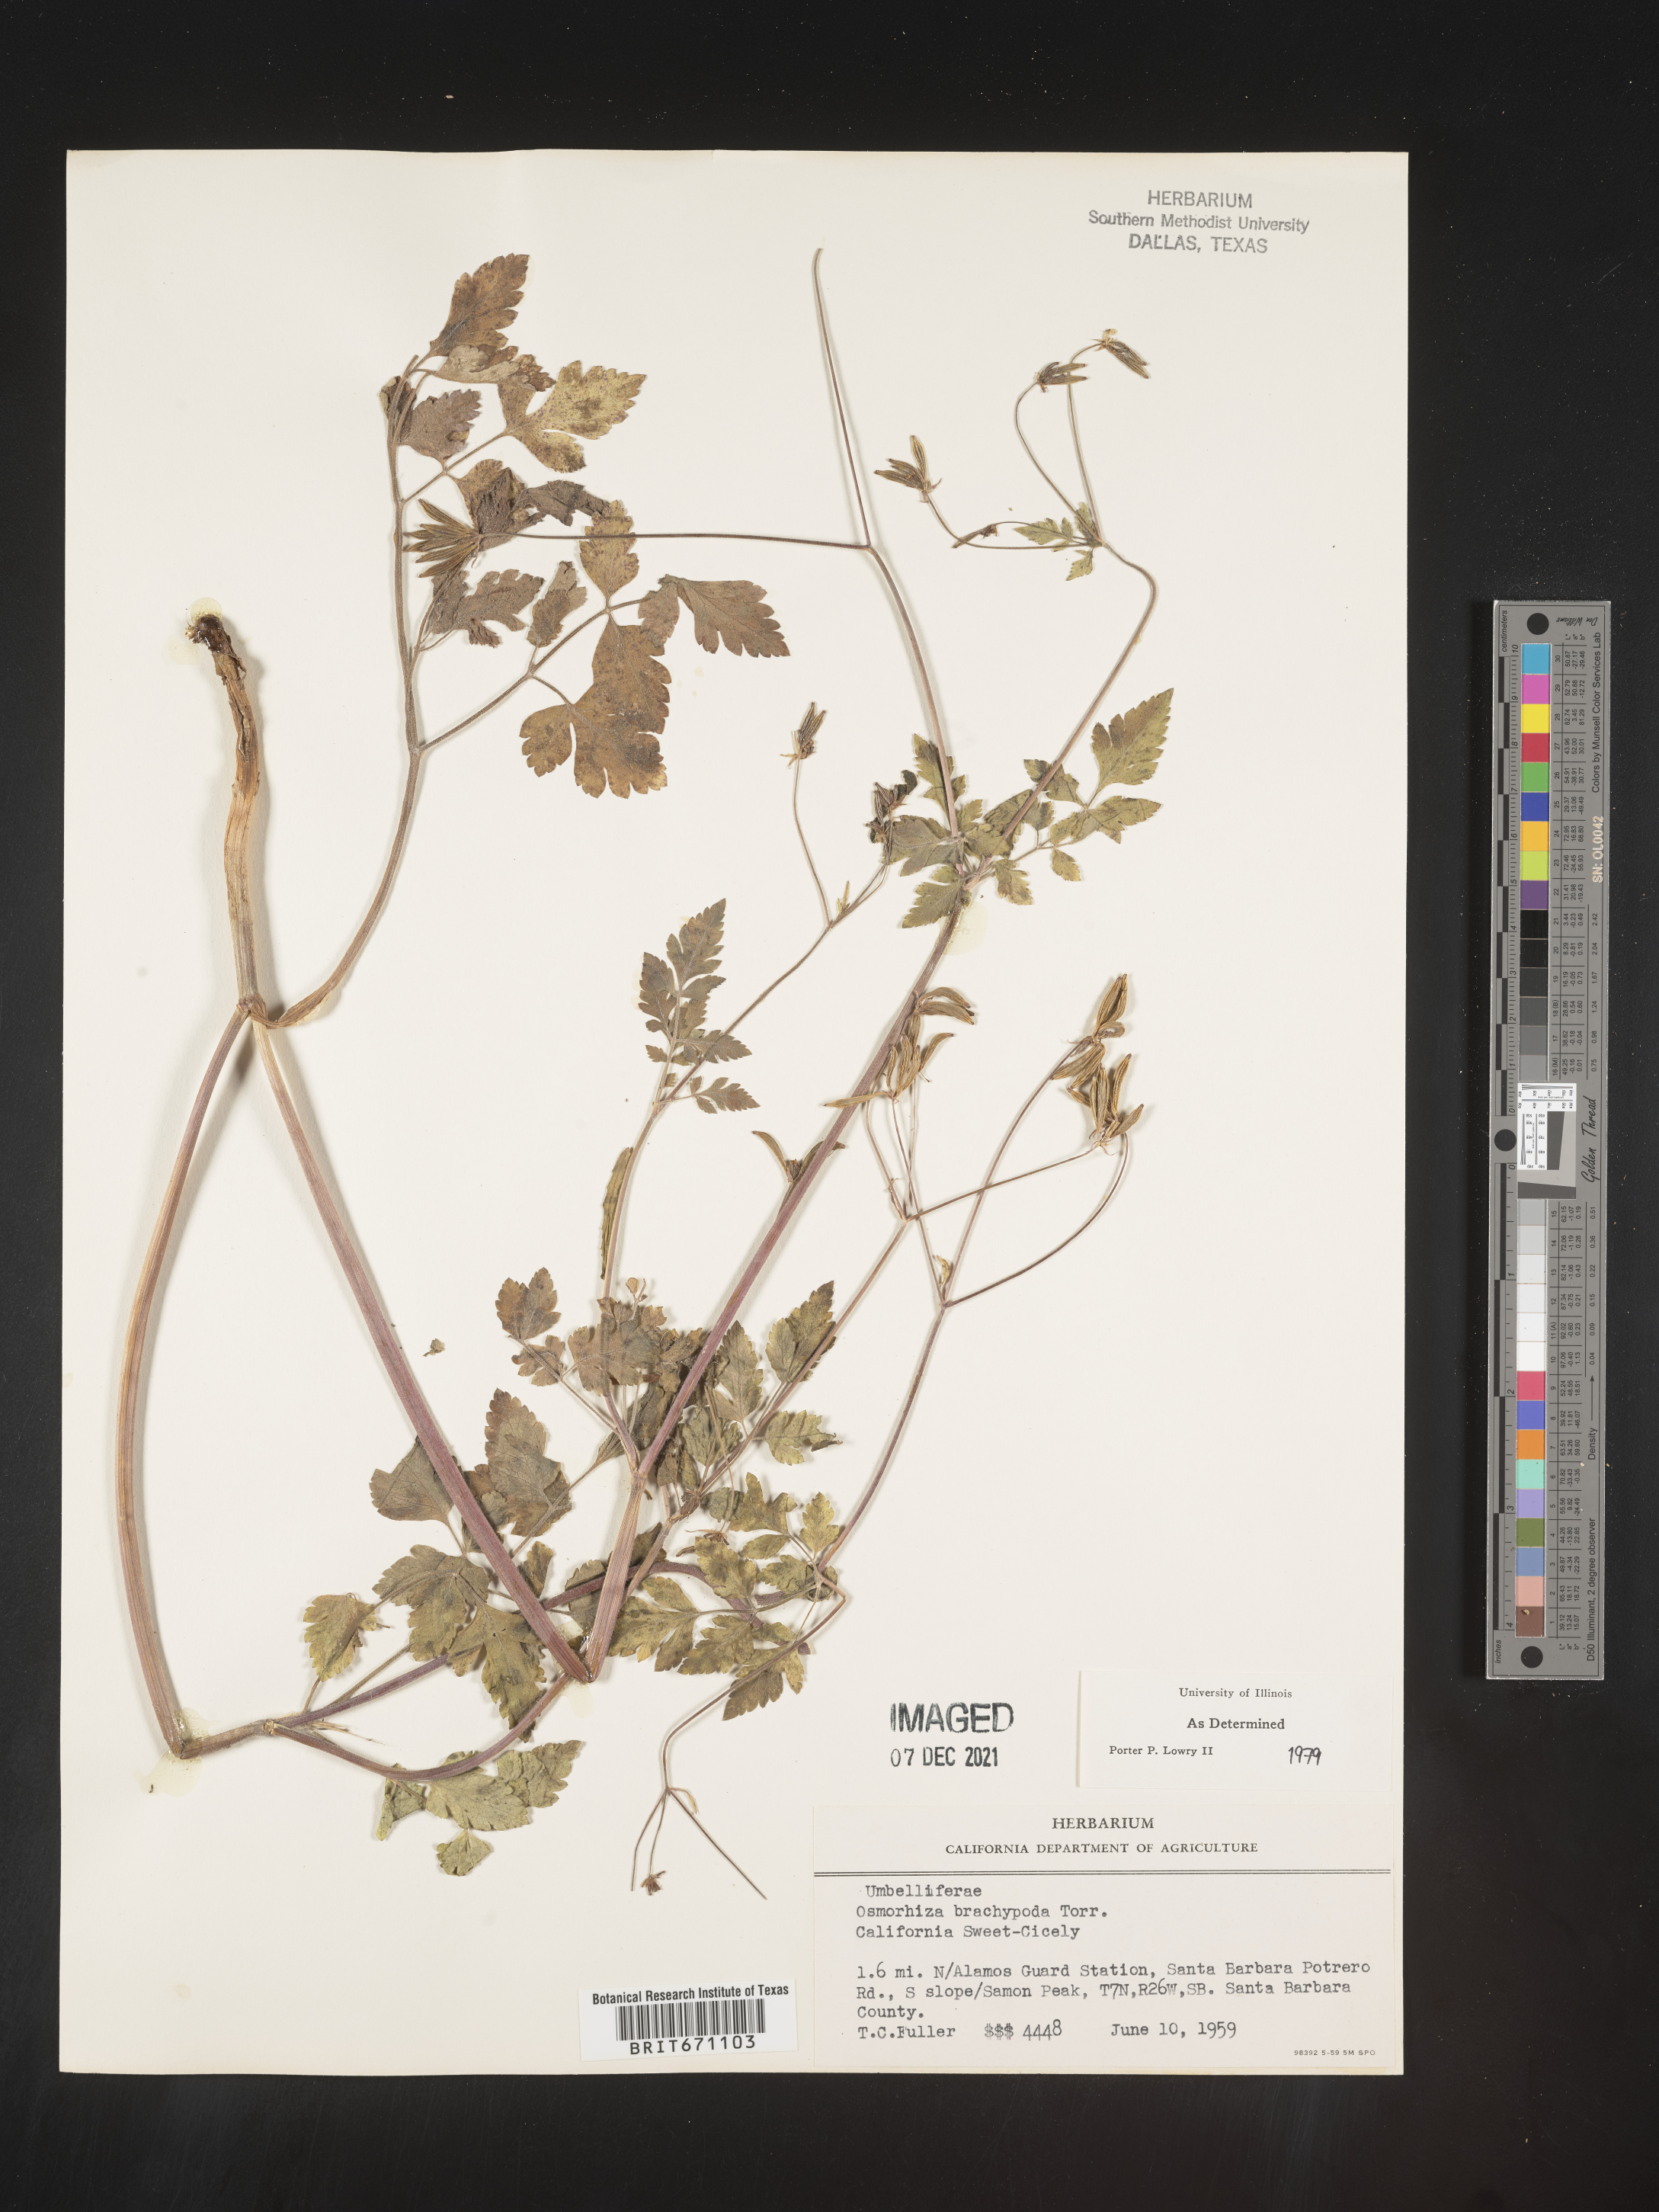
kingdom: Plantae
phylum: Tracheophyta
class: Magnoliopsida
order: Apiales
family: Apiaceae
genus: Osmorhiza
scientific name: Osmorhiza brachypoda
